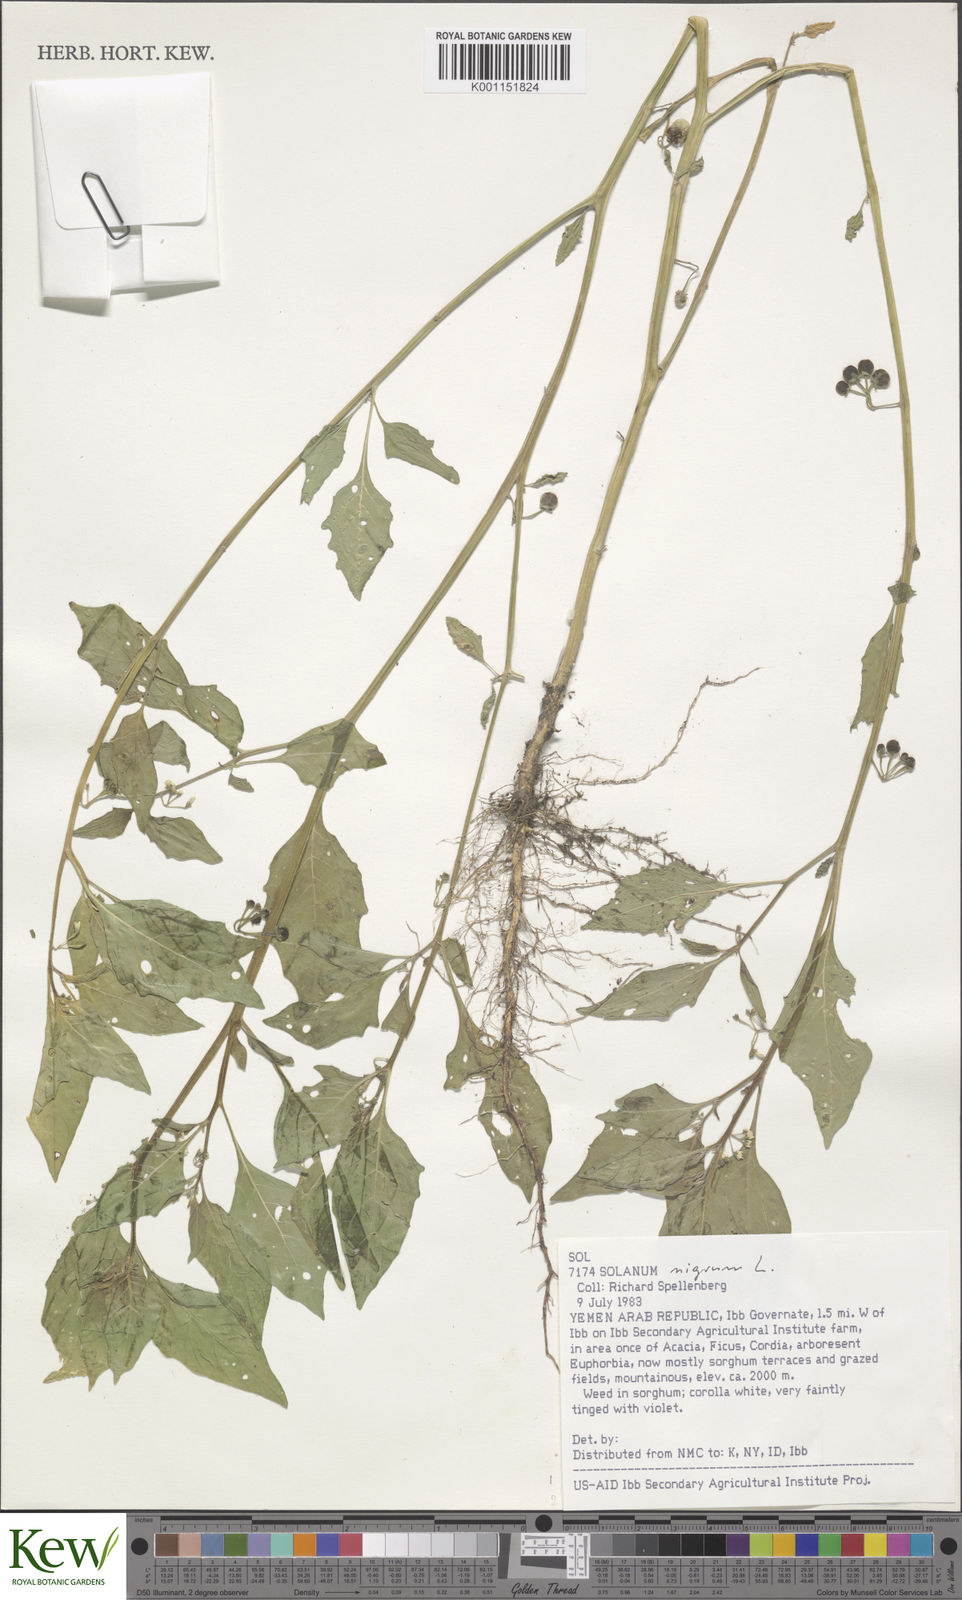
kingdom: Plantae
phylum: Tracheophyta
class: Magnoliopsida
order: Solanales
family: Solanaceae
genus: Solanum
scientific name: Solanum nigrum
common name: Black nightshade
